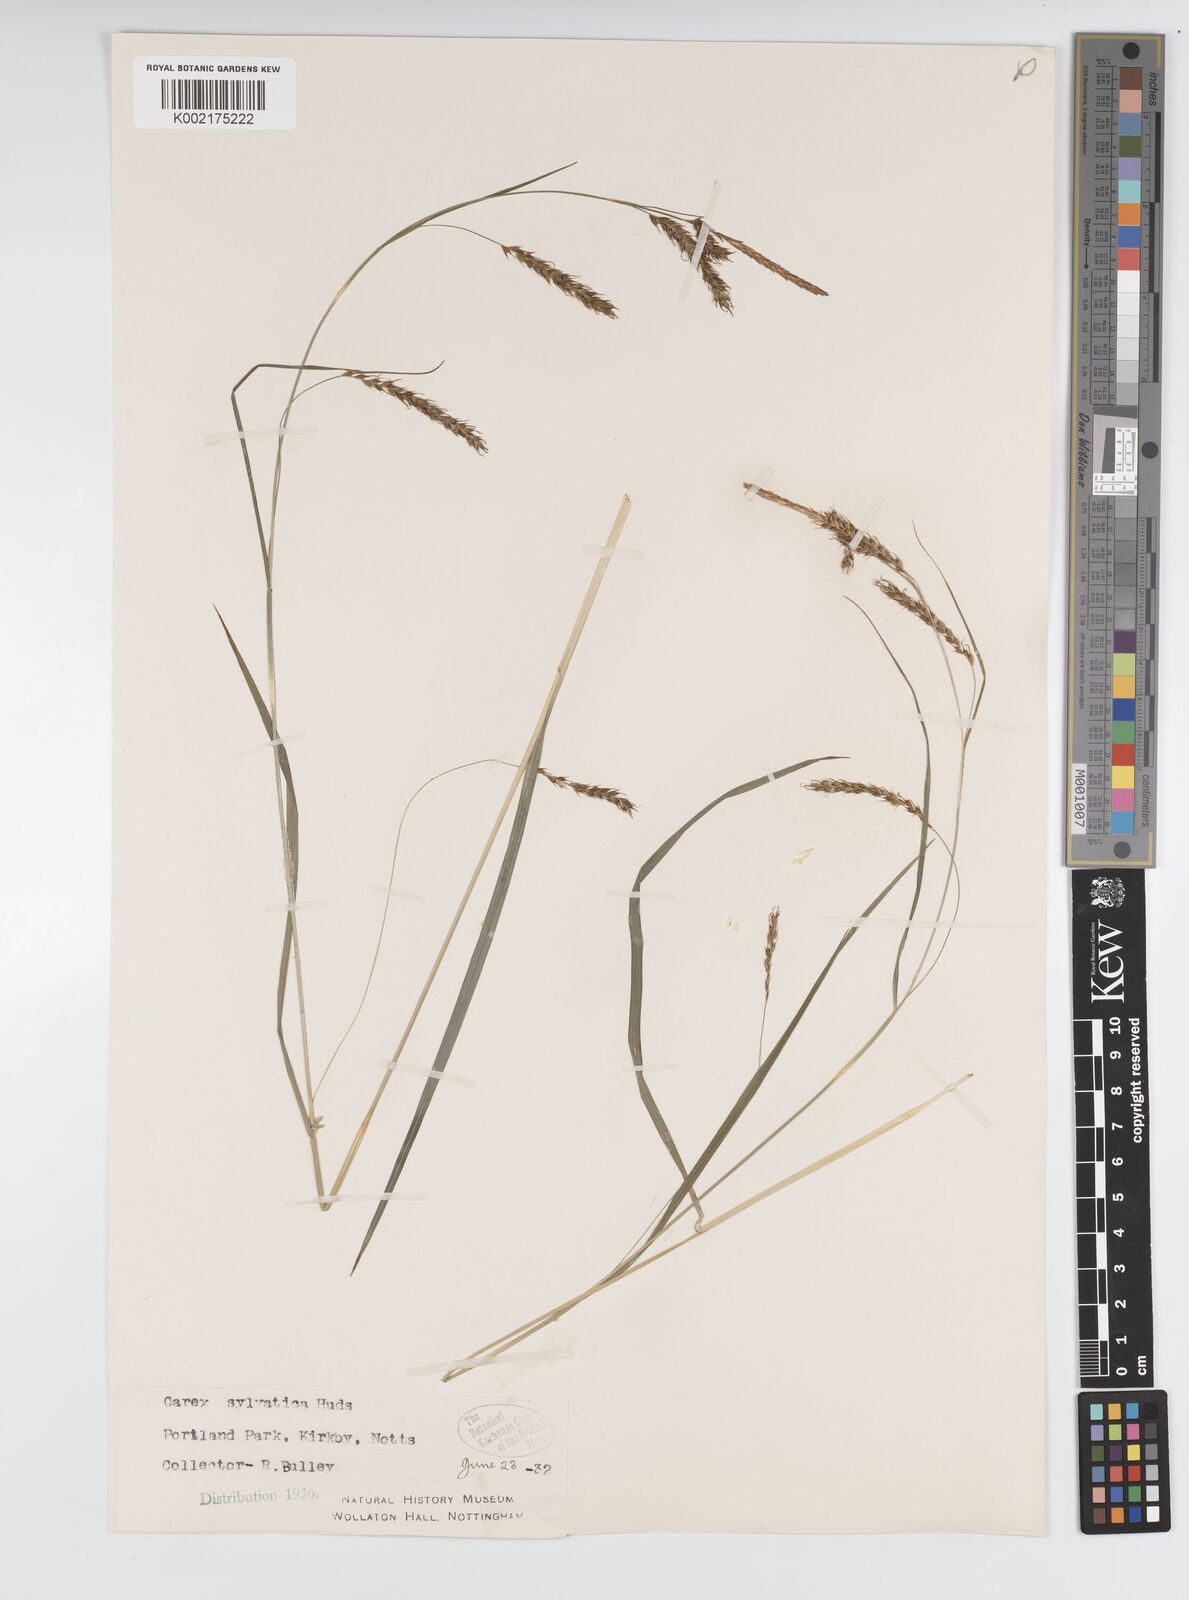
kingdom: Plantae
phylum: Tracheophyta
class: Liliopsida
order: Poales
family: Cyperaceae
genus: Carex
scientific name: Carex sylvatica
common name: Wood-sedge
